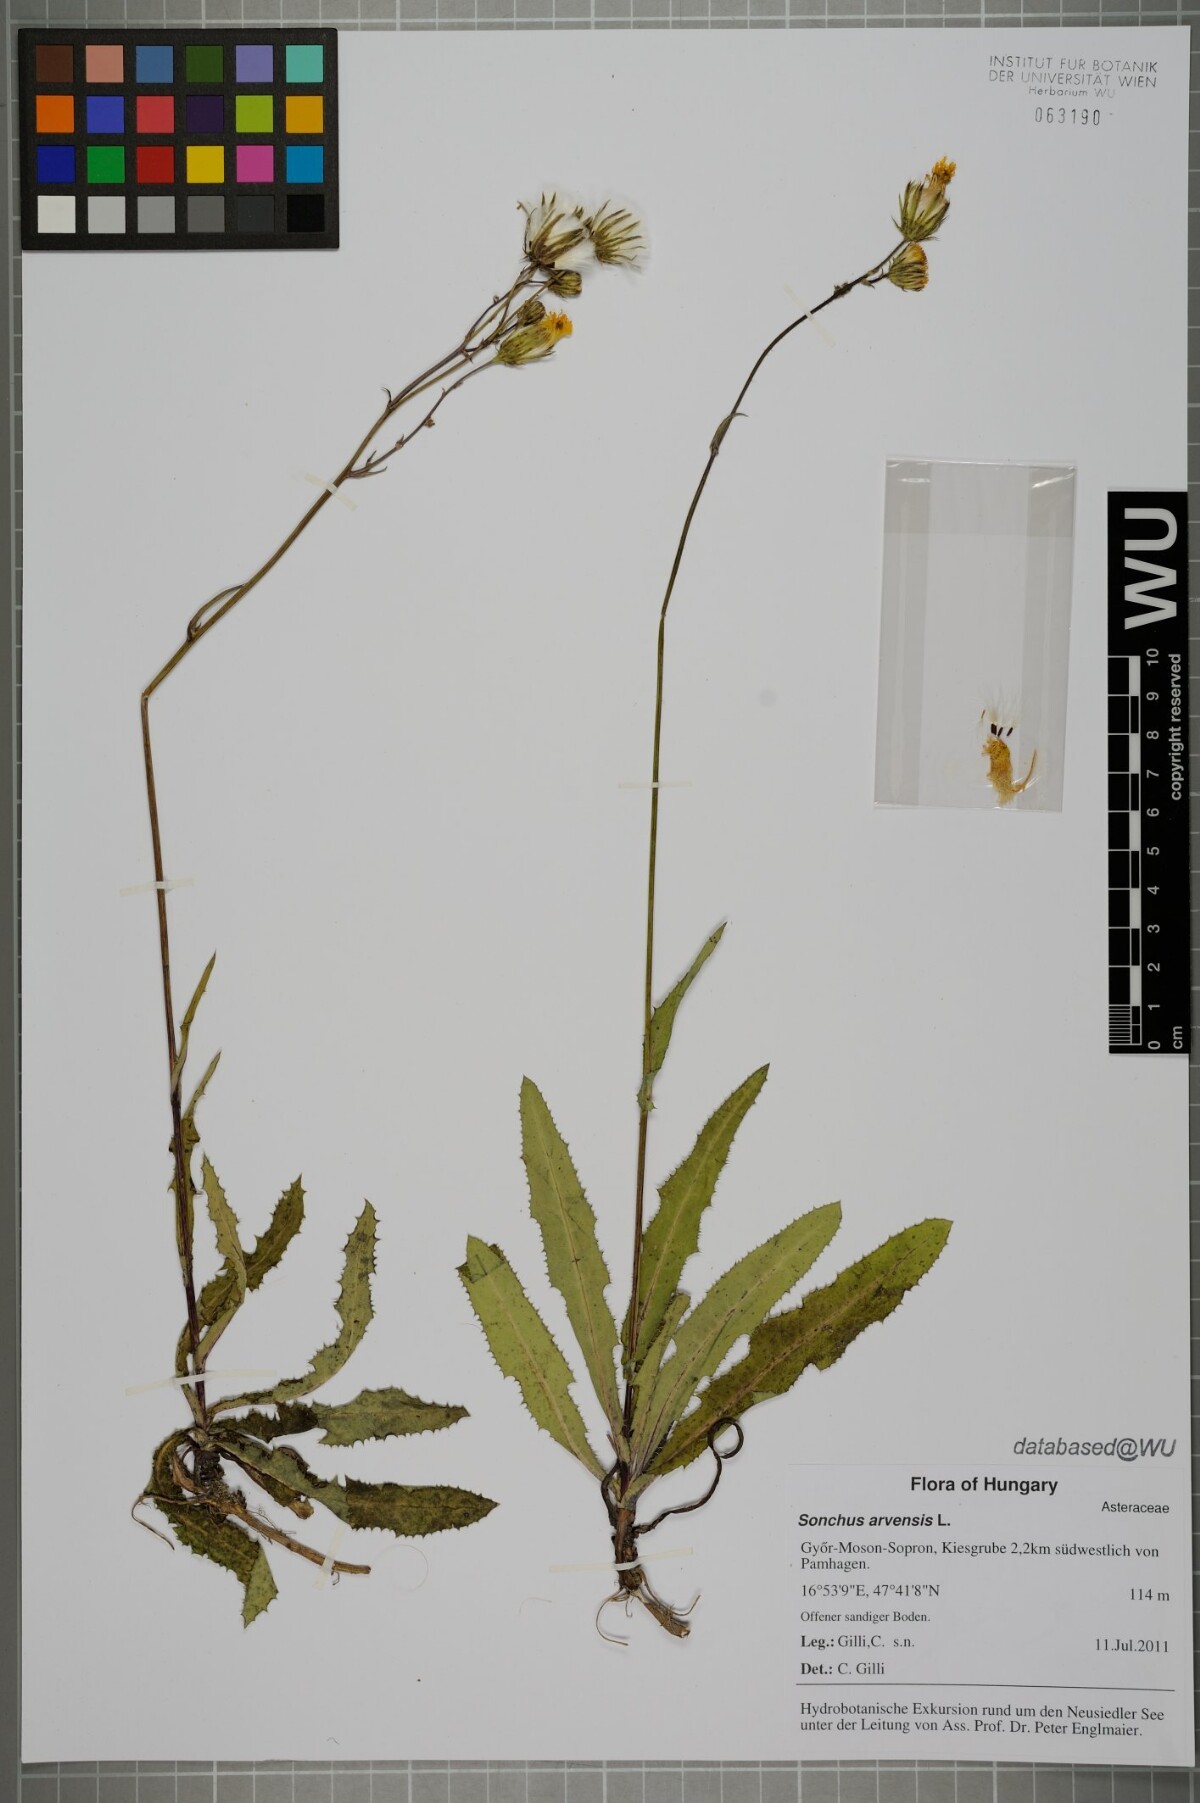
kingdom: Plantae
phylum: Tracheophyta
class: Magnoliopsida
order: Asterales
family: Asteraceae
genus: Sonchus
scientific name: Sonchus arvensis
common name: Perennial sow-thistle
